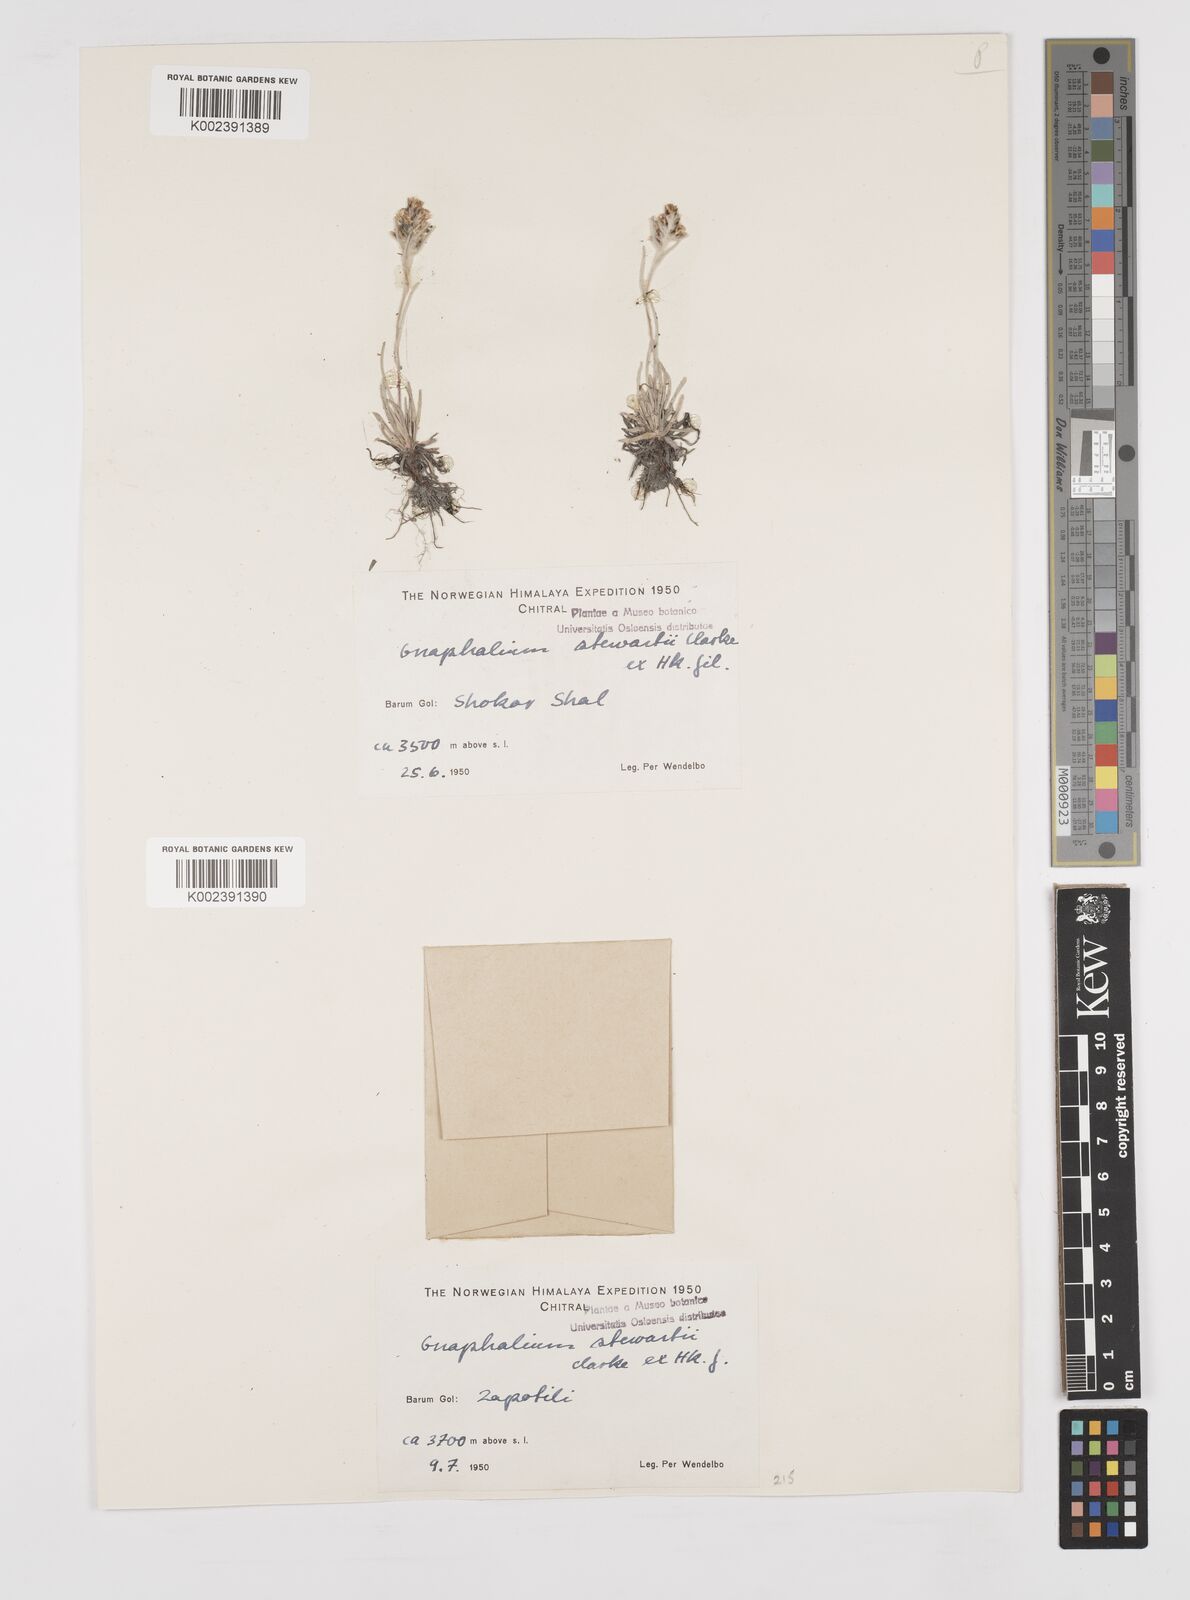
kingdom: Plantae
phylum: Tracheophyta
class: Magnoliopsida
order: Asterales
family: Asteraceae
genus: Gnaphalium
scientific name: Gnaphalium stewartii
